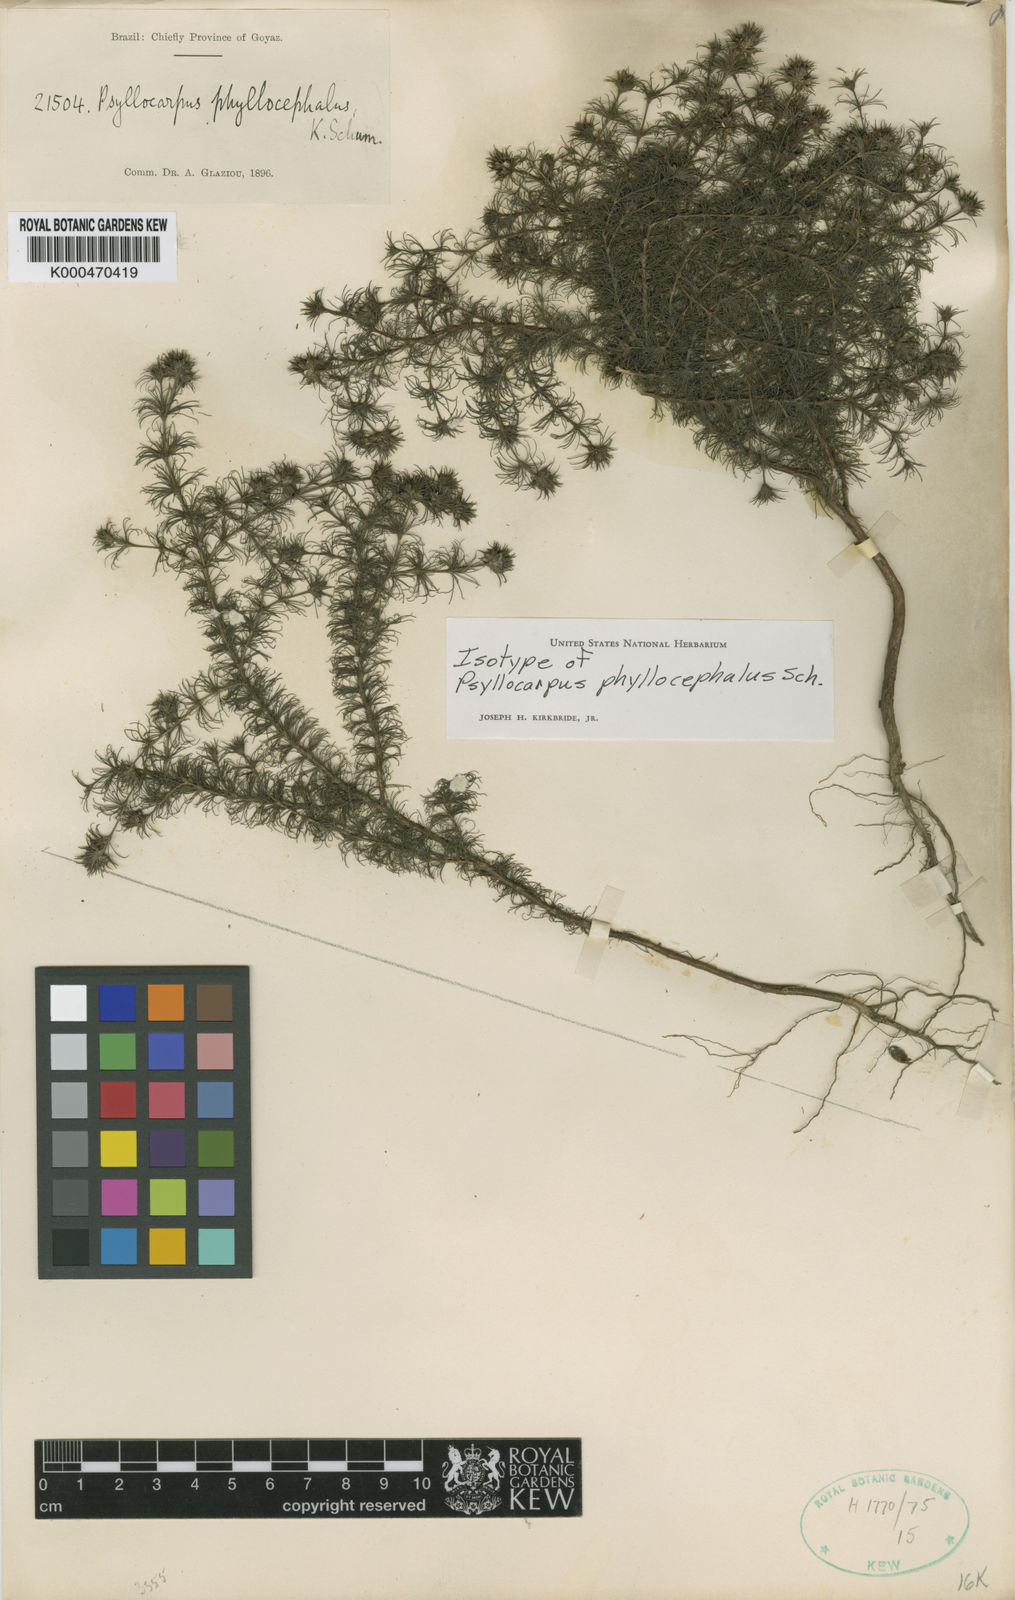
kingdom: Plantae
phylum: Tracheophyta
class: Magnoliopsida
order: Gentianales
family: Rubiaceae
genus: Psyllocarpus
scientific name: Psyllocarpus phyllocephalus
